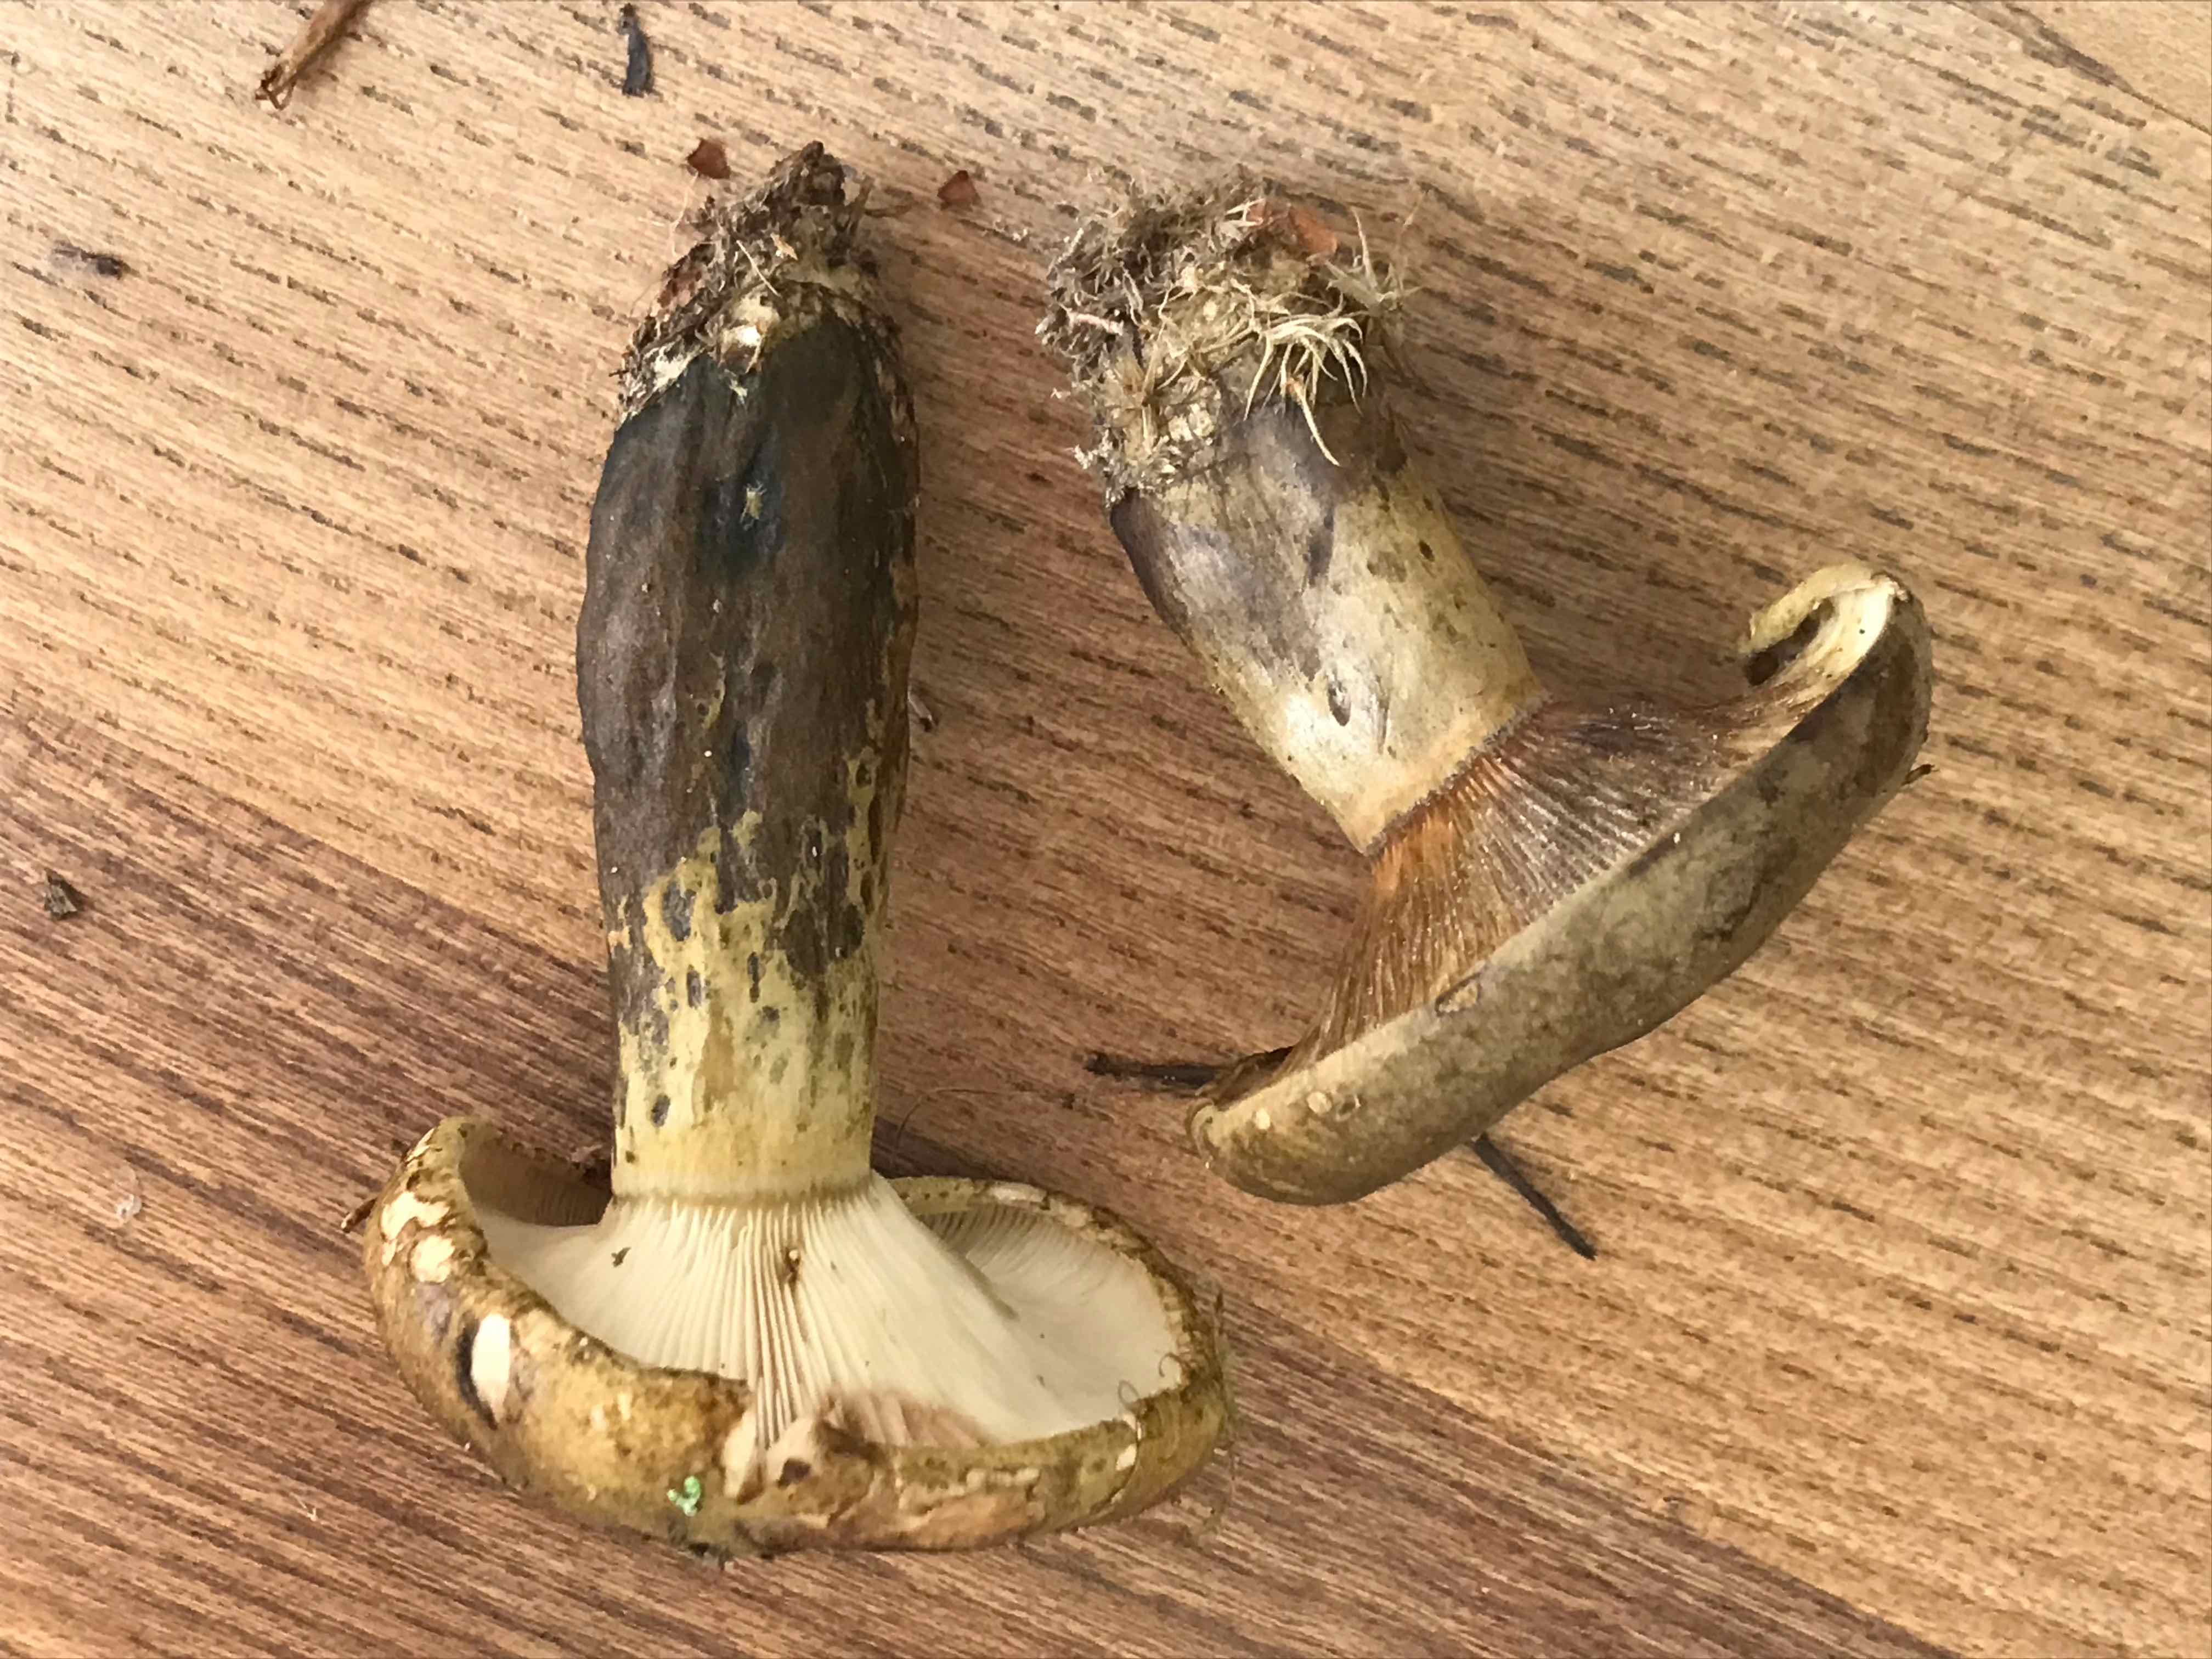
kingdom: Fungi
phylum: Basidiomycota
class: Agaricomycetes
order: Russulales
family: Russulaceae
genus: Lactarius
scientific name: Lactarius necator
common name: manddraber-mælkehat
